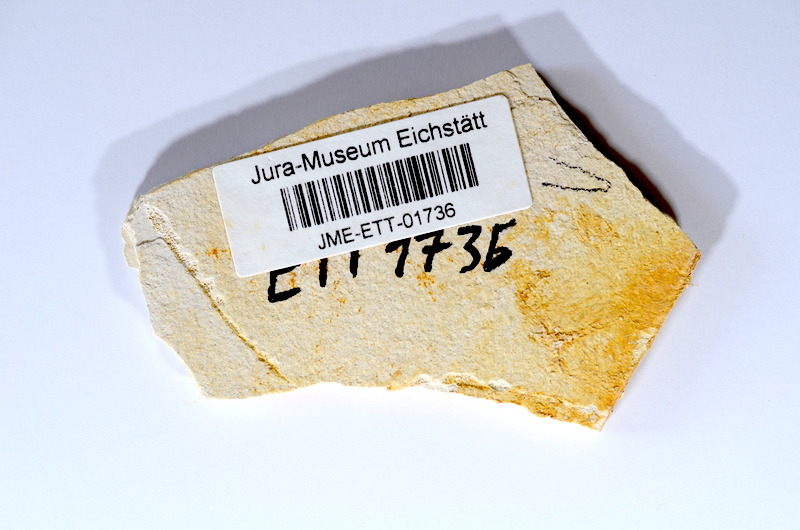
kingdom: Animalia
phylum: Chordata
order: Salmoniformes
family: Orthogonikleithridae
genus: Orthogonikleithrus
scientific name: Orthogonikleithrus hoelli
